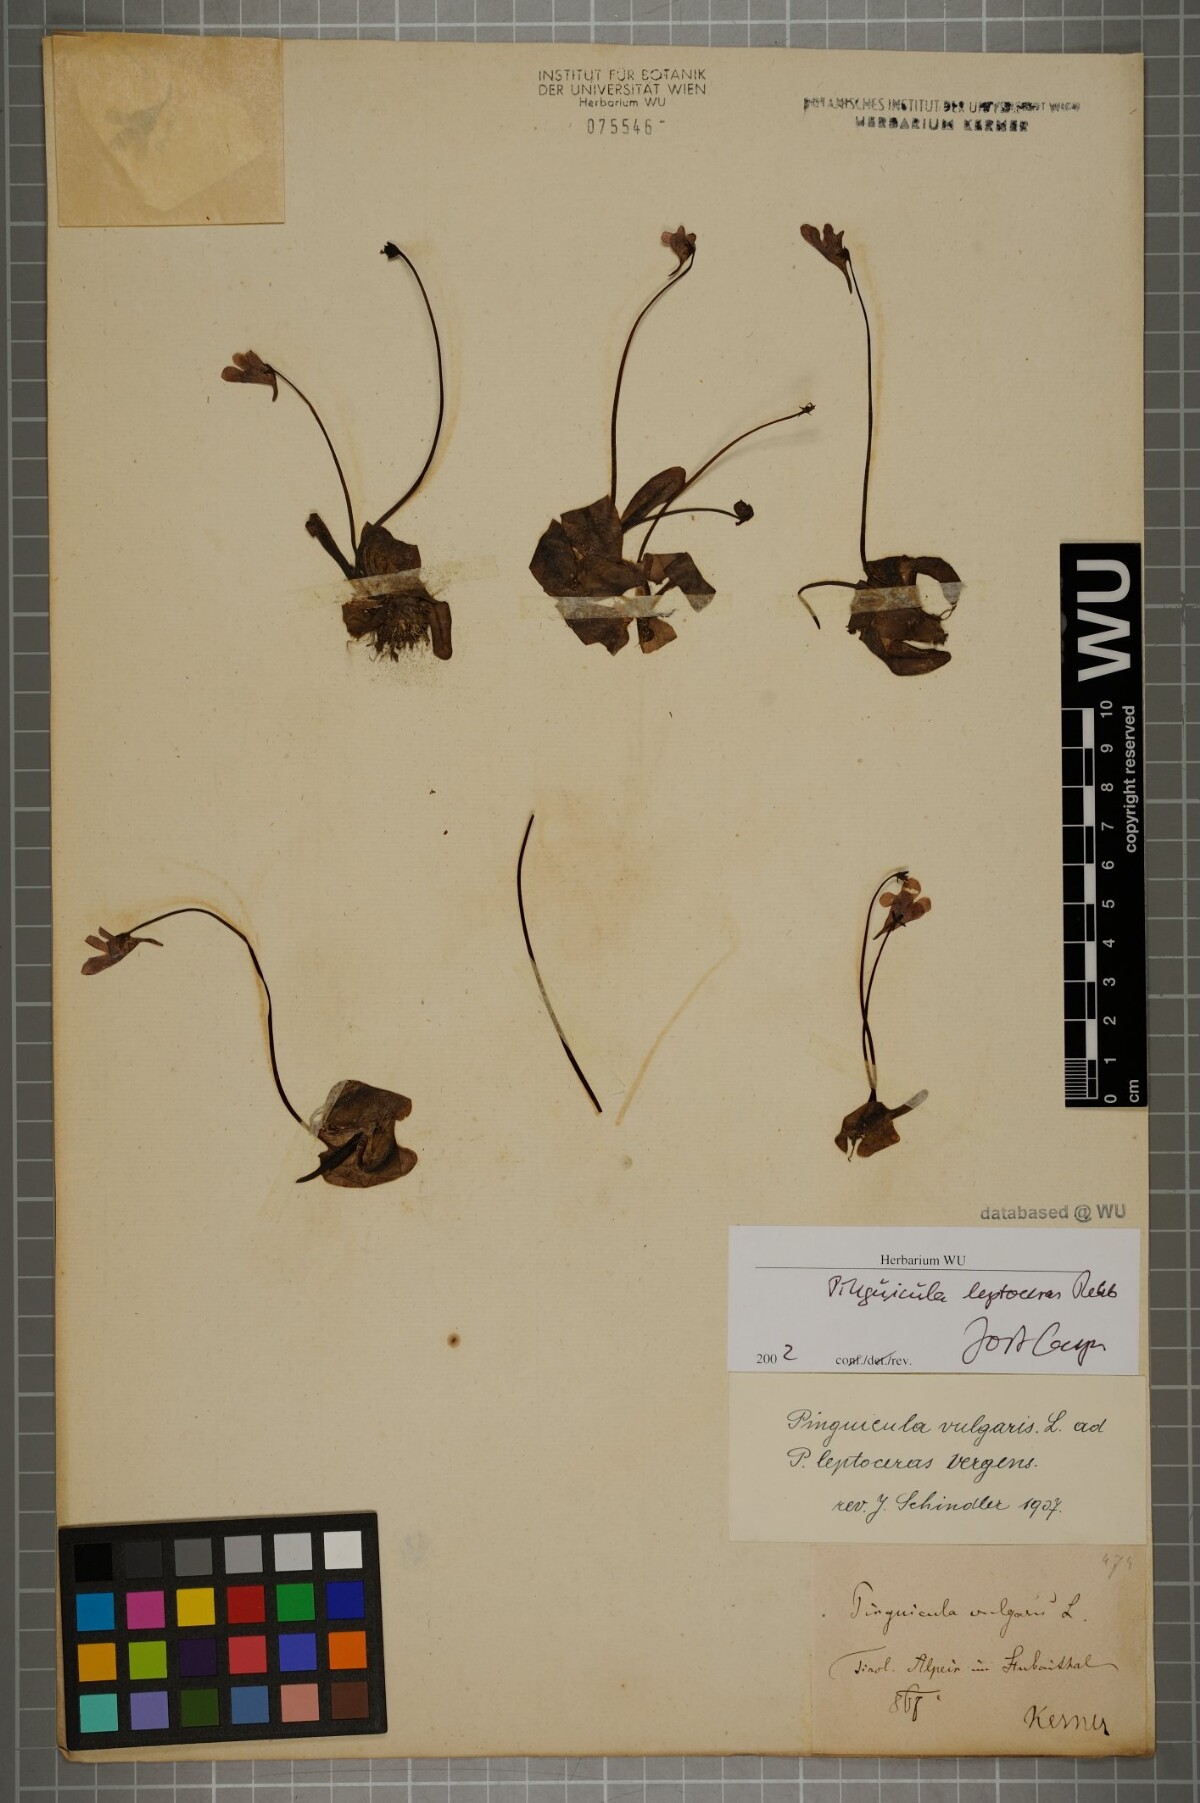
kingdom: Plantae
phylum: Tracheophyta
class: Magnoliopsida
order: Lamiales
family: Lentibulariaceae
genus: Pinguicula
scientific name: Pinguicula leptoceras
